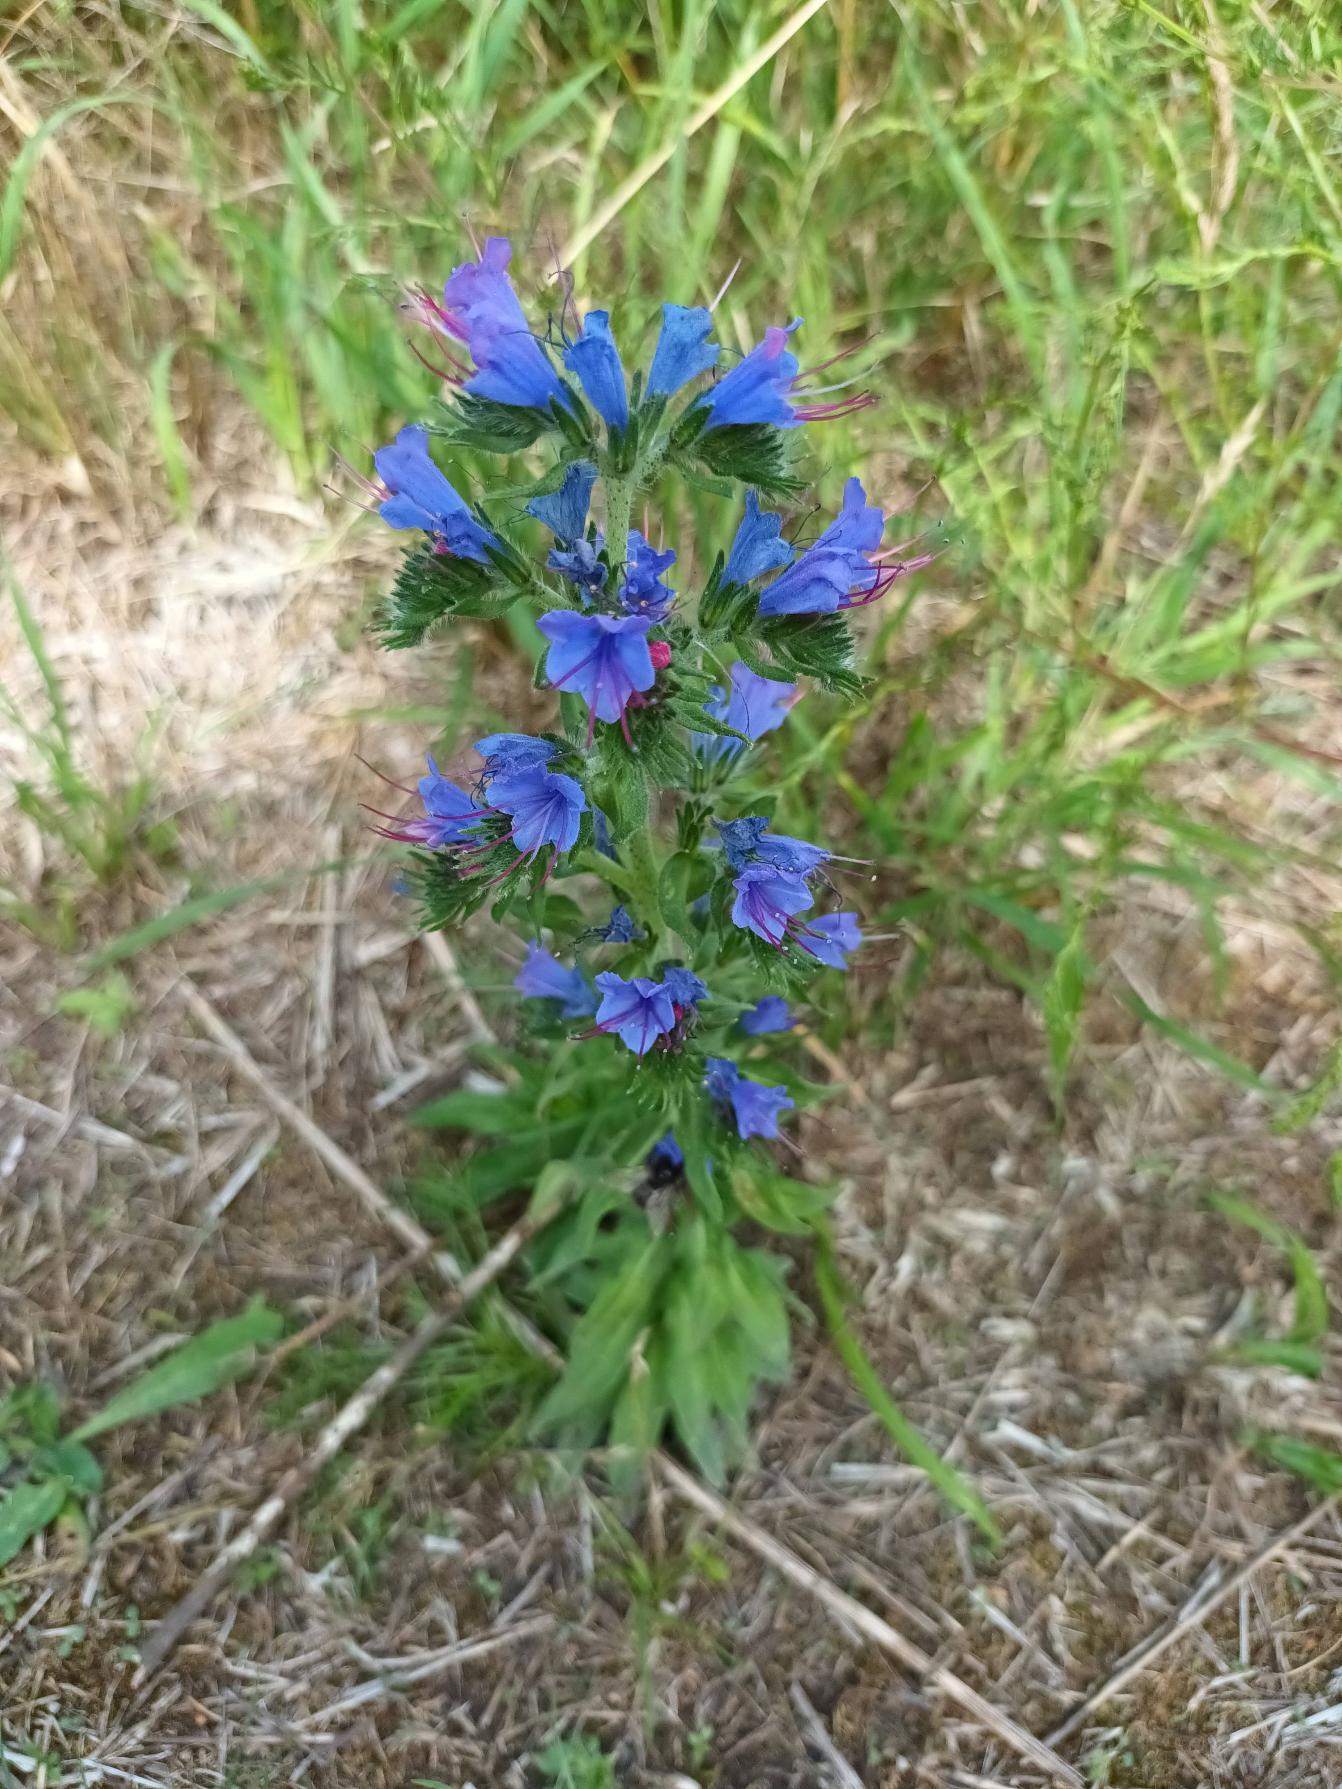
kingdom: Plantae
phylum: Tracheophyta
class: Magnoliopsida
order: Boraginales
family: Boraginaceae
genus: Echium
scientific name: Echium vulgare
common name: Slangehoved
